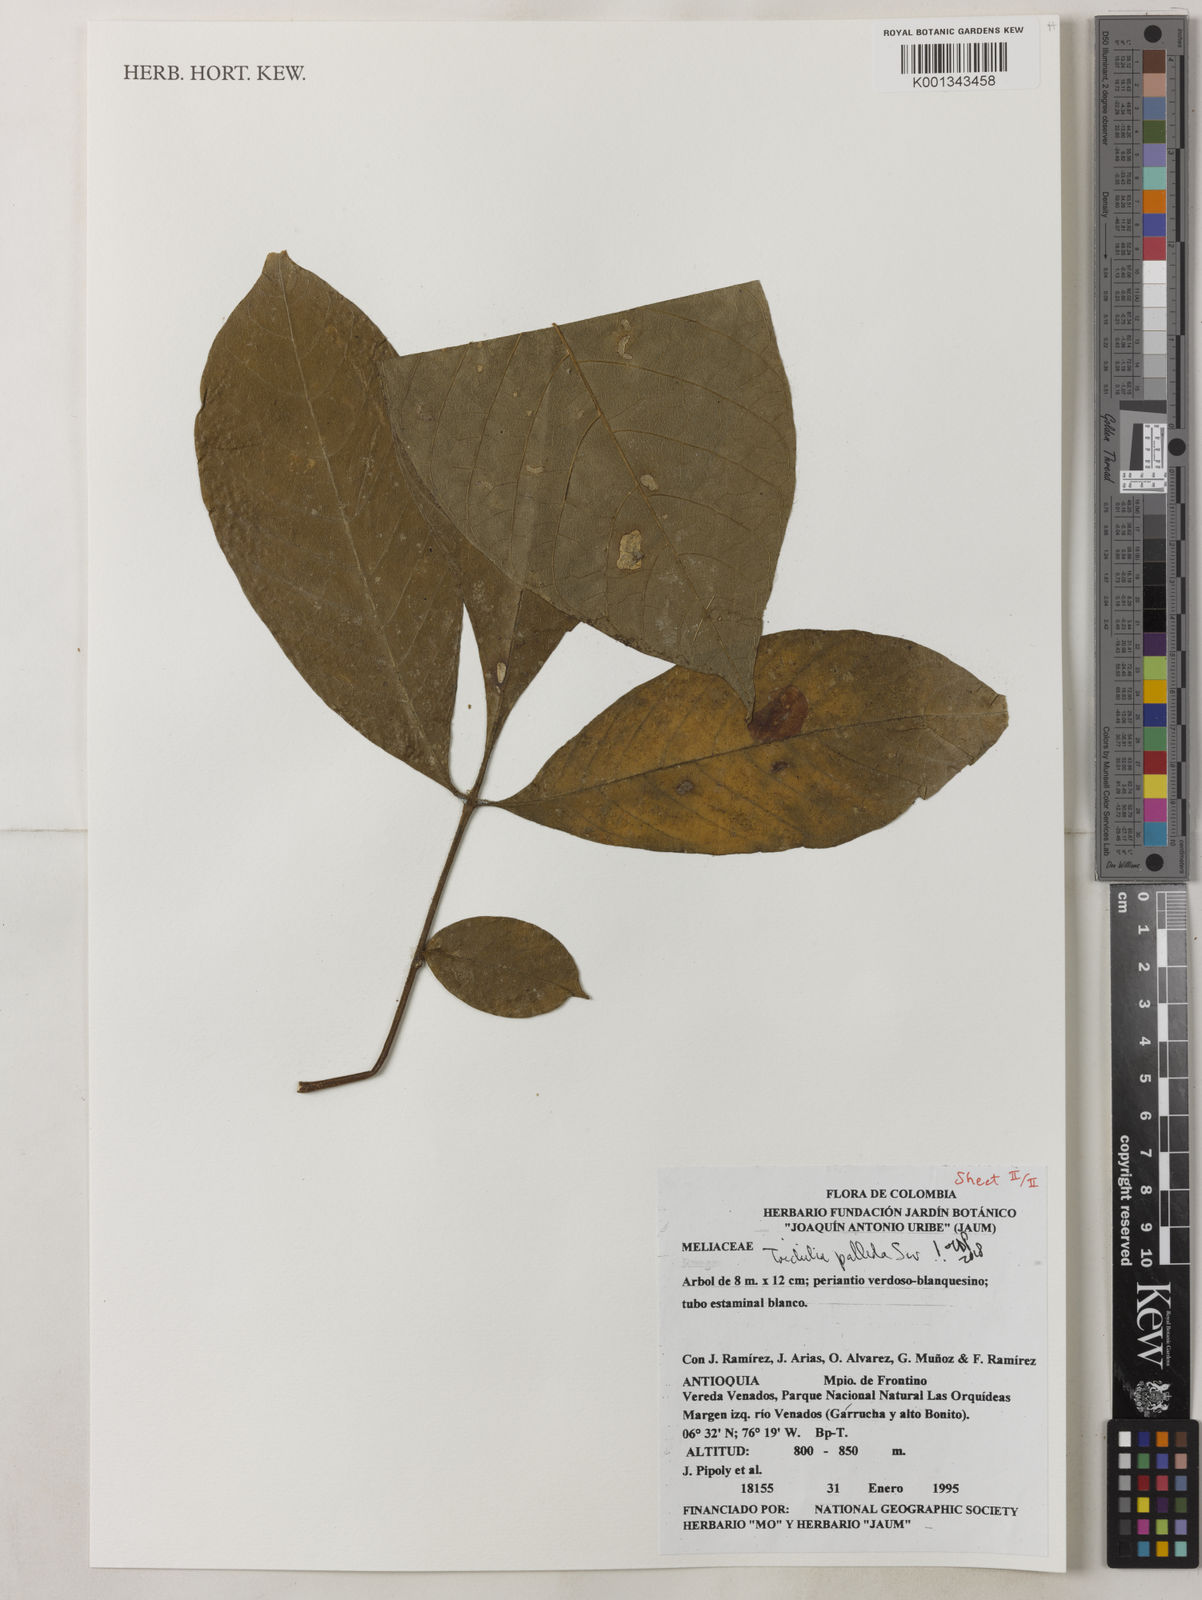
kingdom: Plantae
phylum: Tracheophyta
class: Magnoliopsida
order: Sapindales
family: Meliaceae
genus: Trichilia
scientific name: Trichilia pallida
